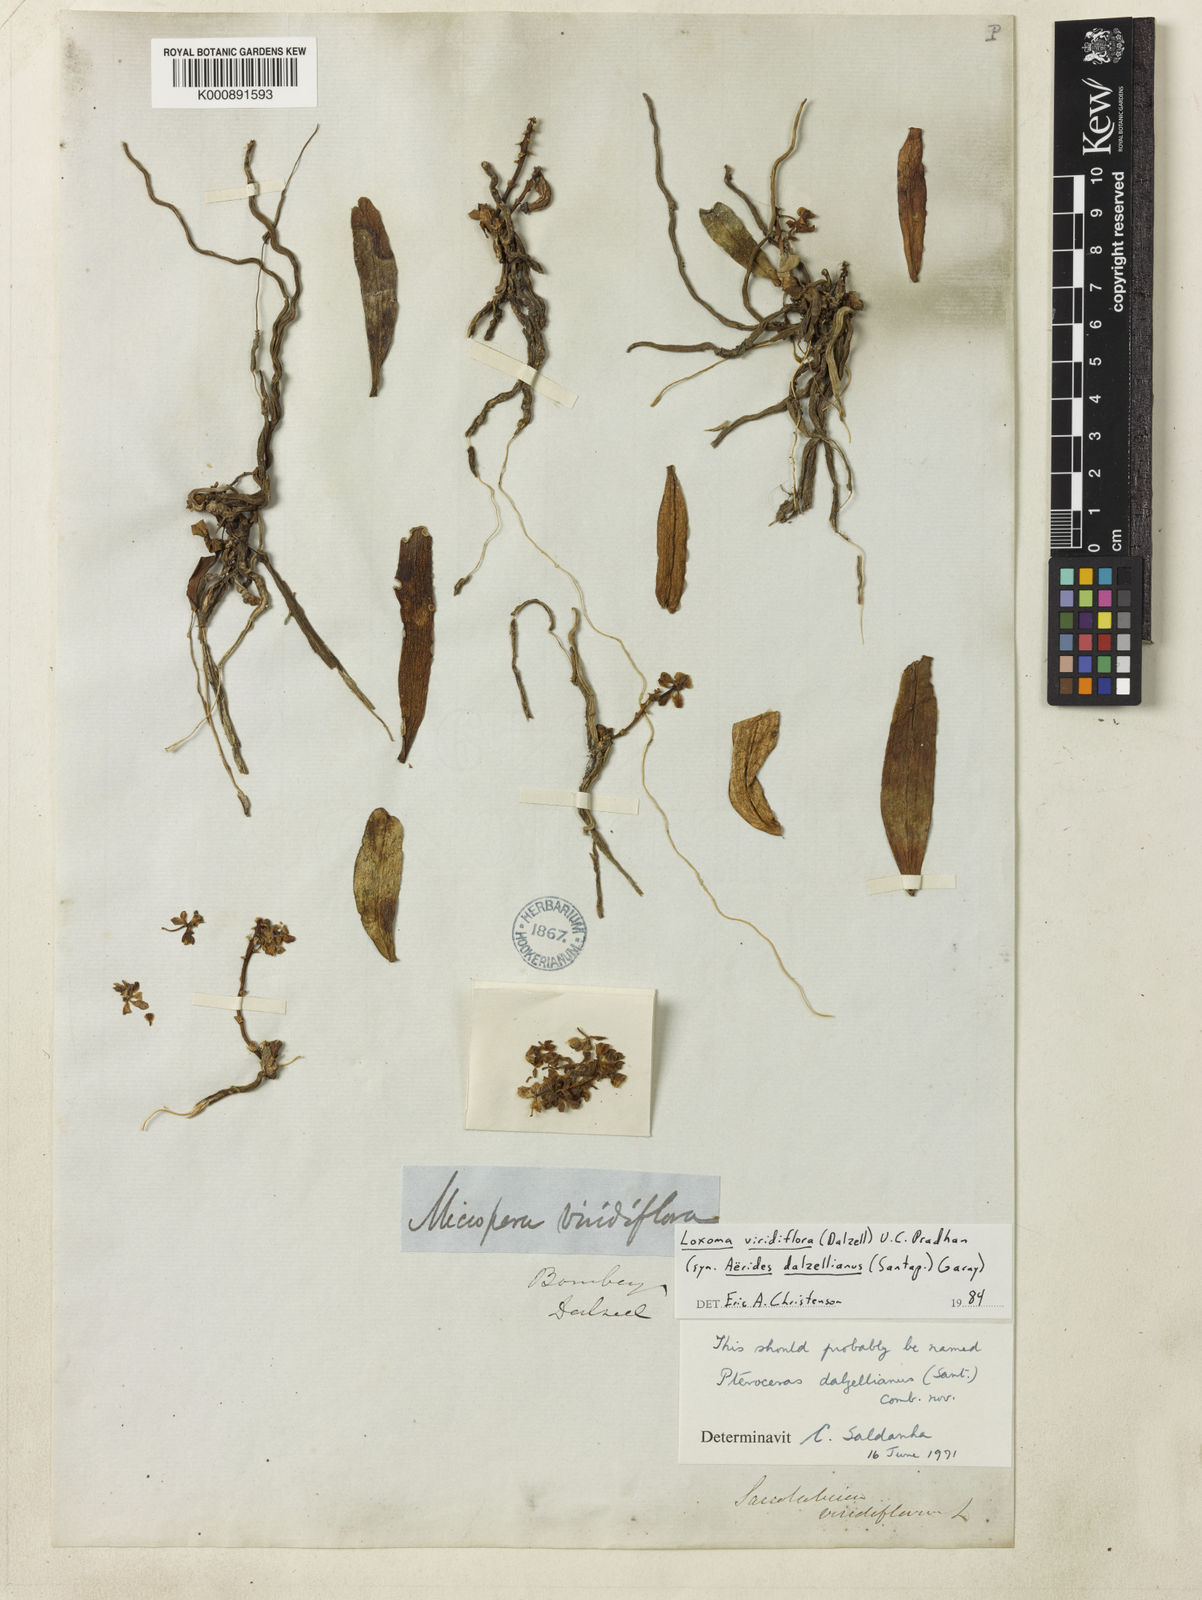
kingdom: Plantae
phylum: Tracheophyta
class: Liliopsida
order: Asparagales
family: Orchidaceae
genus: Smithsonia
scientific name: Smithsonia viridiflora
